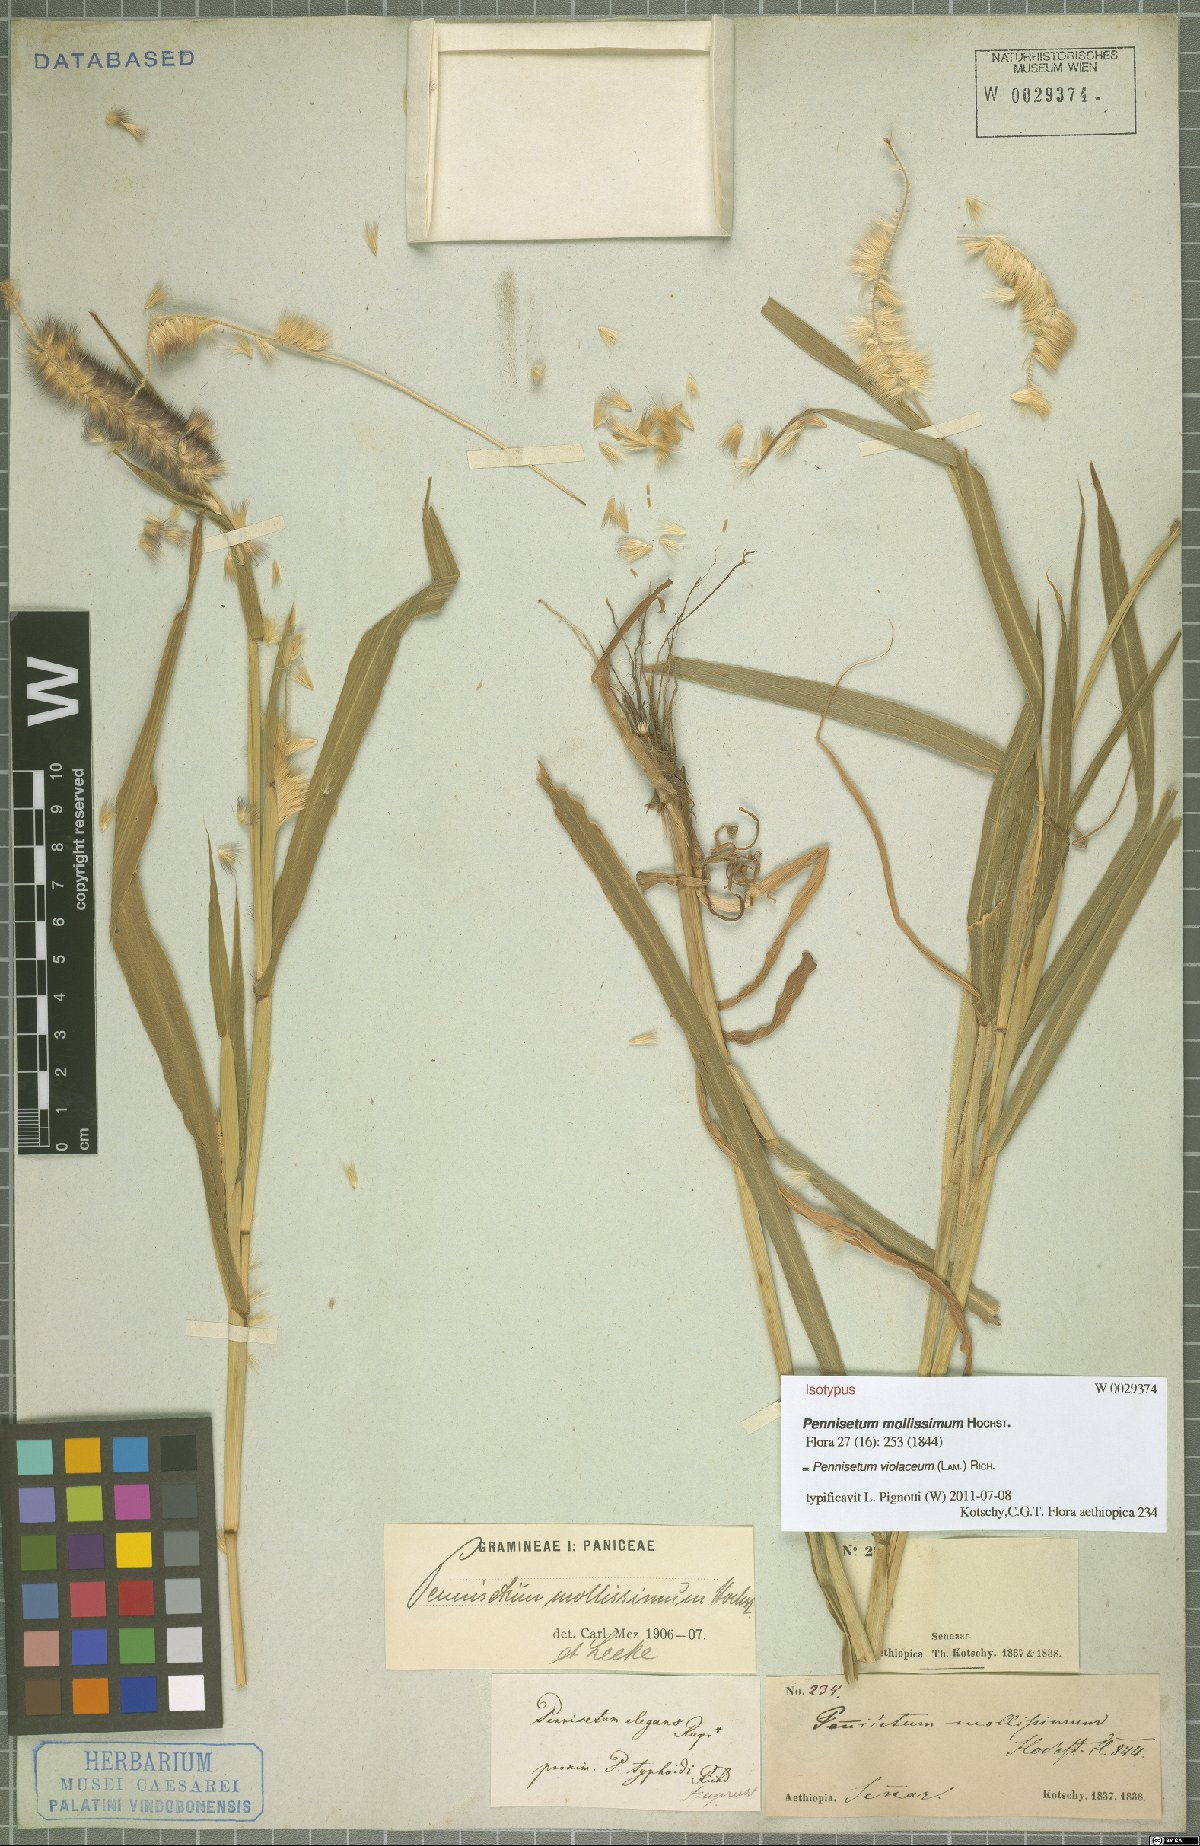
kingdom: Plantae
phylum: Tracheophyta
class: Liliopsida
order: Poales
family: Poaceae
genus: Cenchrus
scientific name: Cenchrus violaceus
